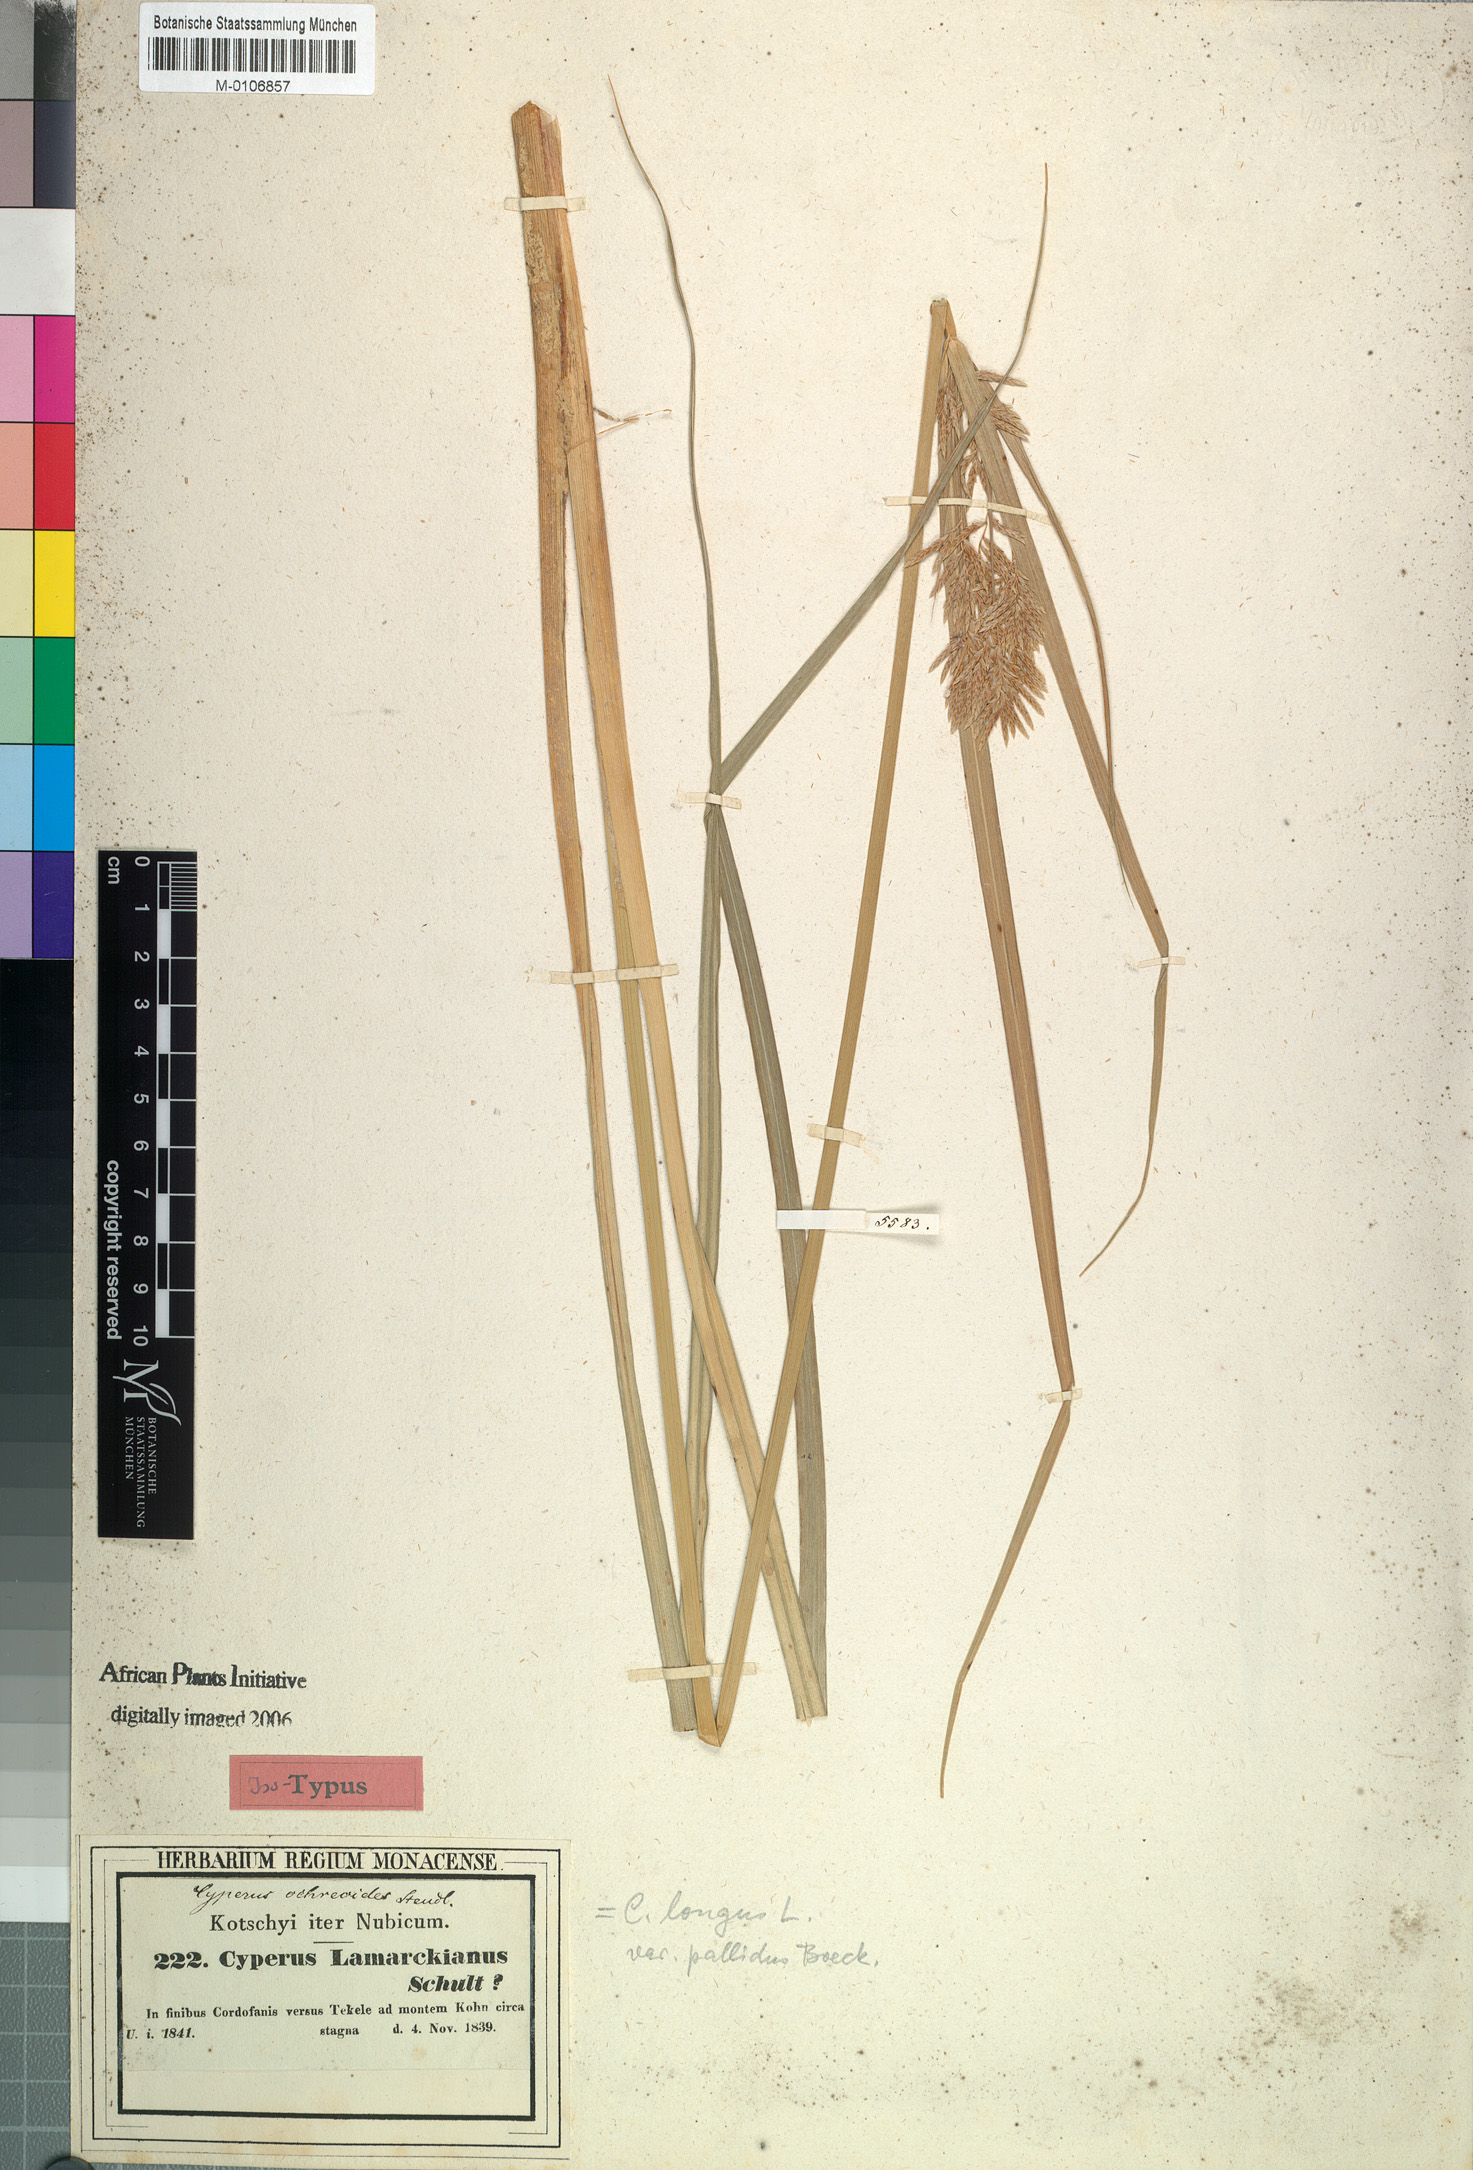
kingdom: Plantae
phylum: Tracheophyta
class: Liliopsida
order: Poales
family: Cyperaceae
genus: Cyperus
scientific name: Cyperus longus
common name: Galingale
